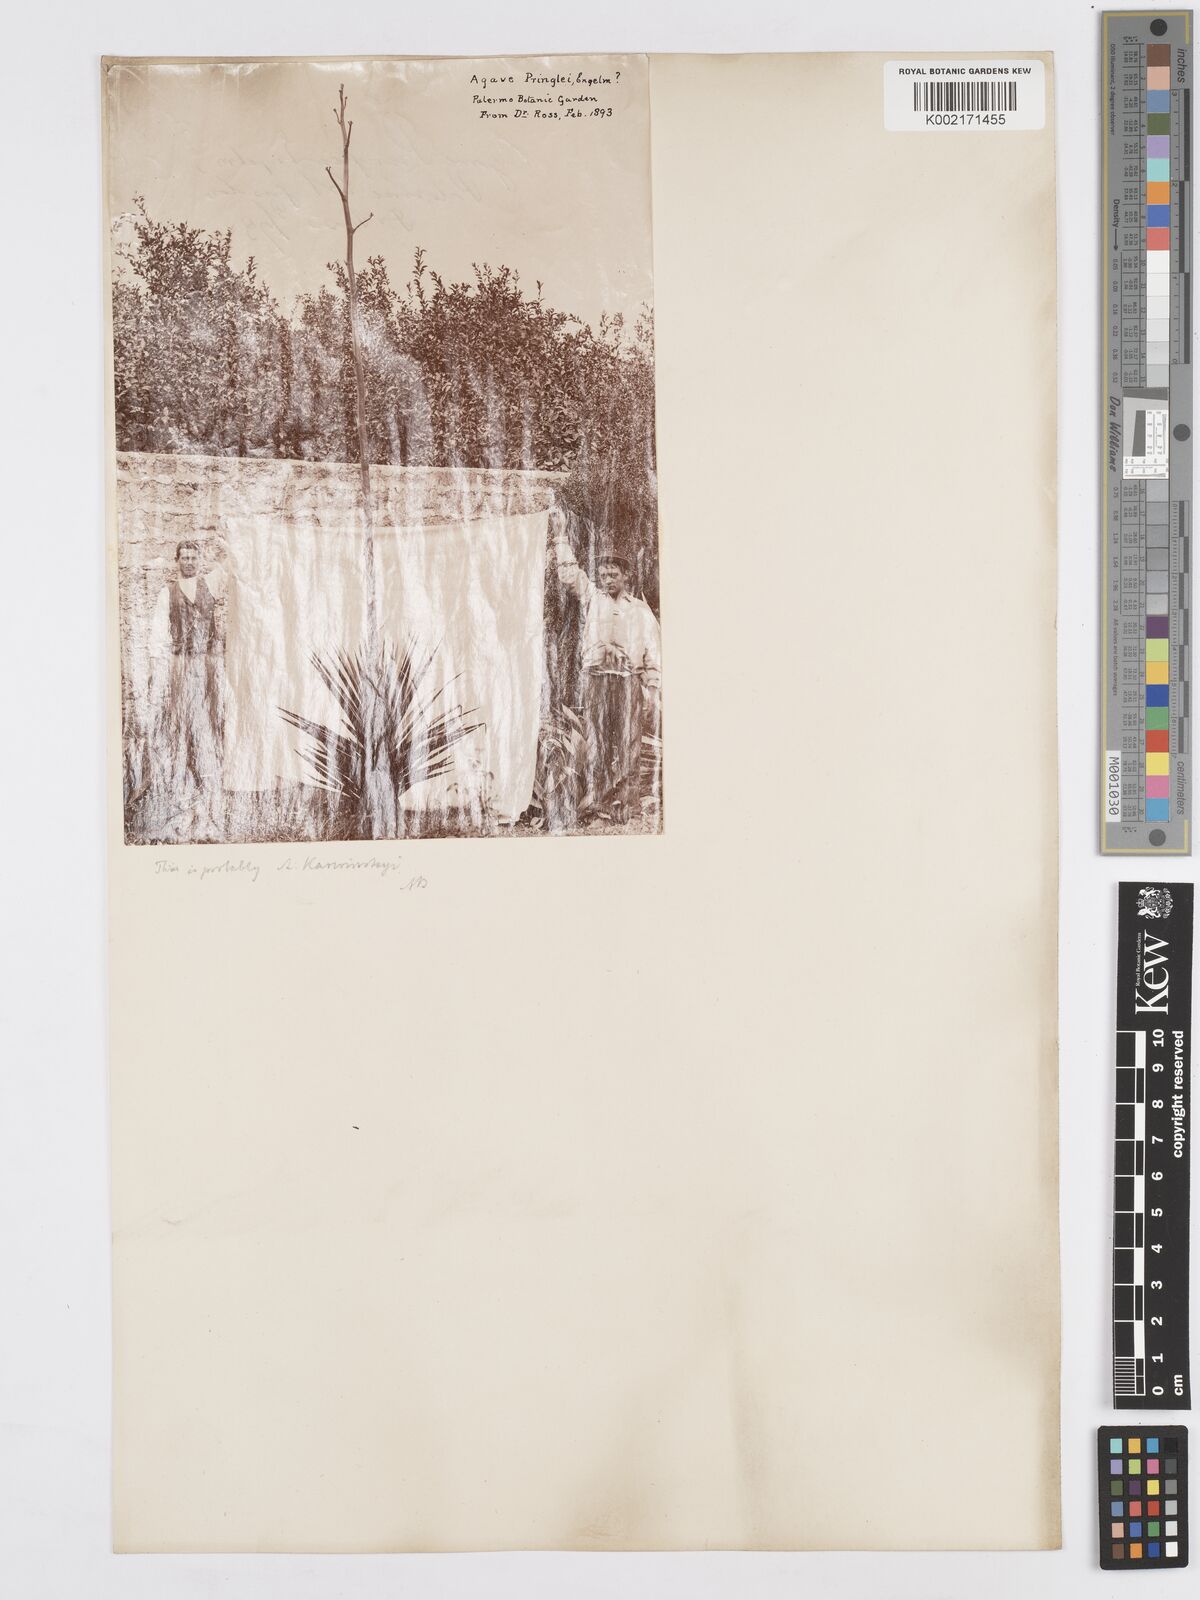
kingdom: Plantae
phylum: Tracheophyta
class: Liliopsida
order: Asparagales
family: Asparagaceae
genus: Agave
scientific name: Agave pringlei
